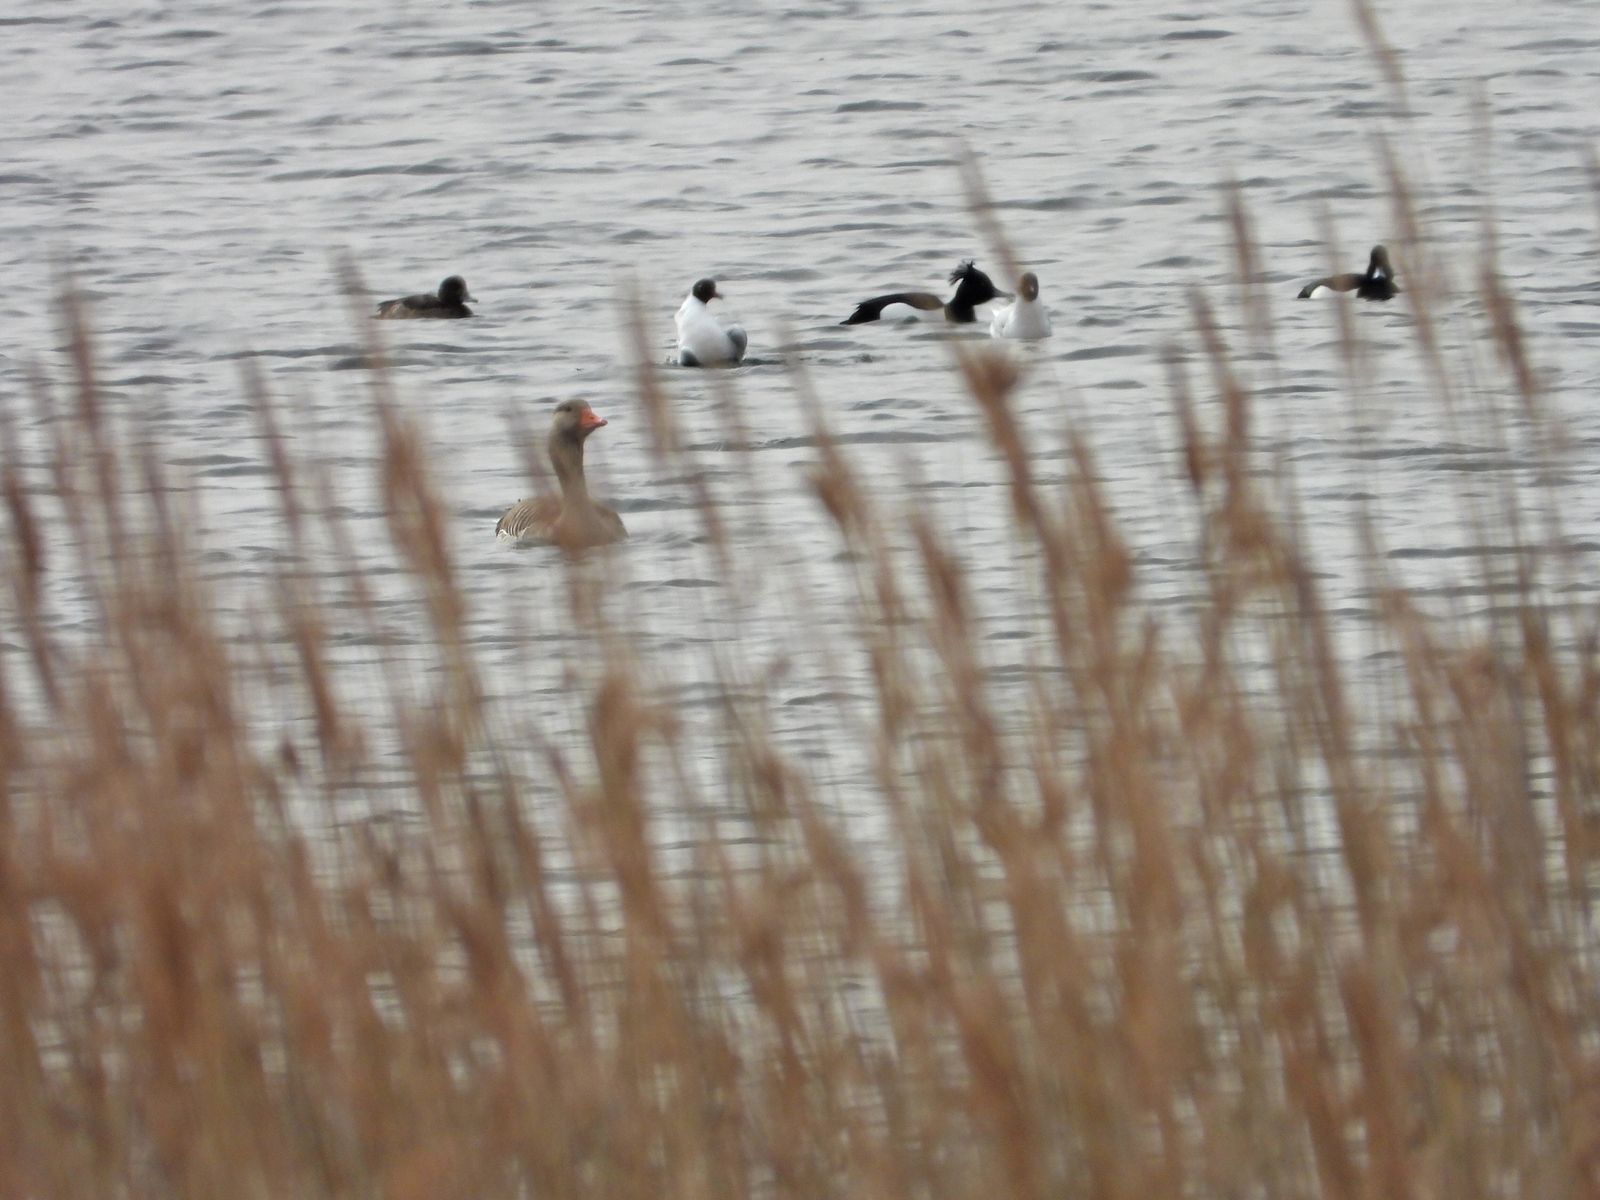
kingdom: Animalia
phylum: Chordata
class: Aves
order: Anseriformes
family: Anatidae
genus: Anser
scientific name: Anser anser
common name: Greylag goose
